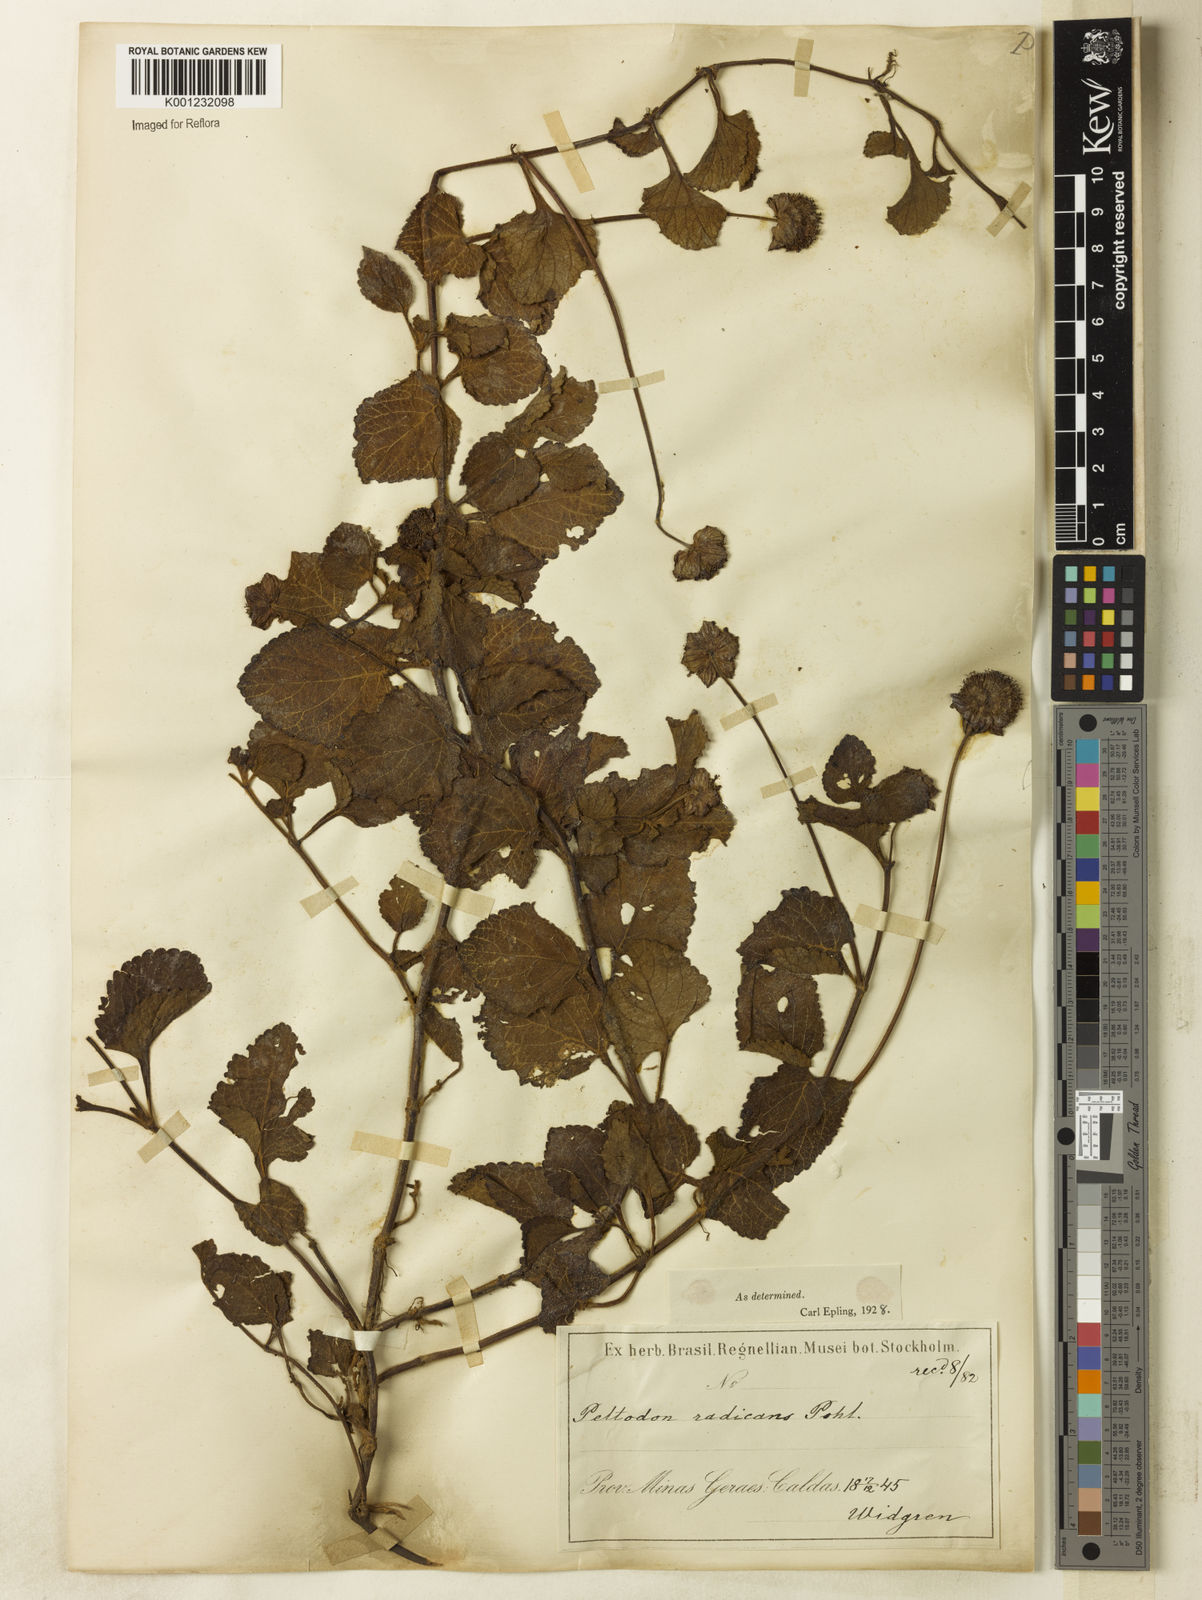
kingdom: Plantae
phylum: Tracheophyta
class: Magnoliopsida
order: Lamiales
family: Lamiaceae
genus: Hyptis
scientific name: Hyptis radicans
